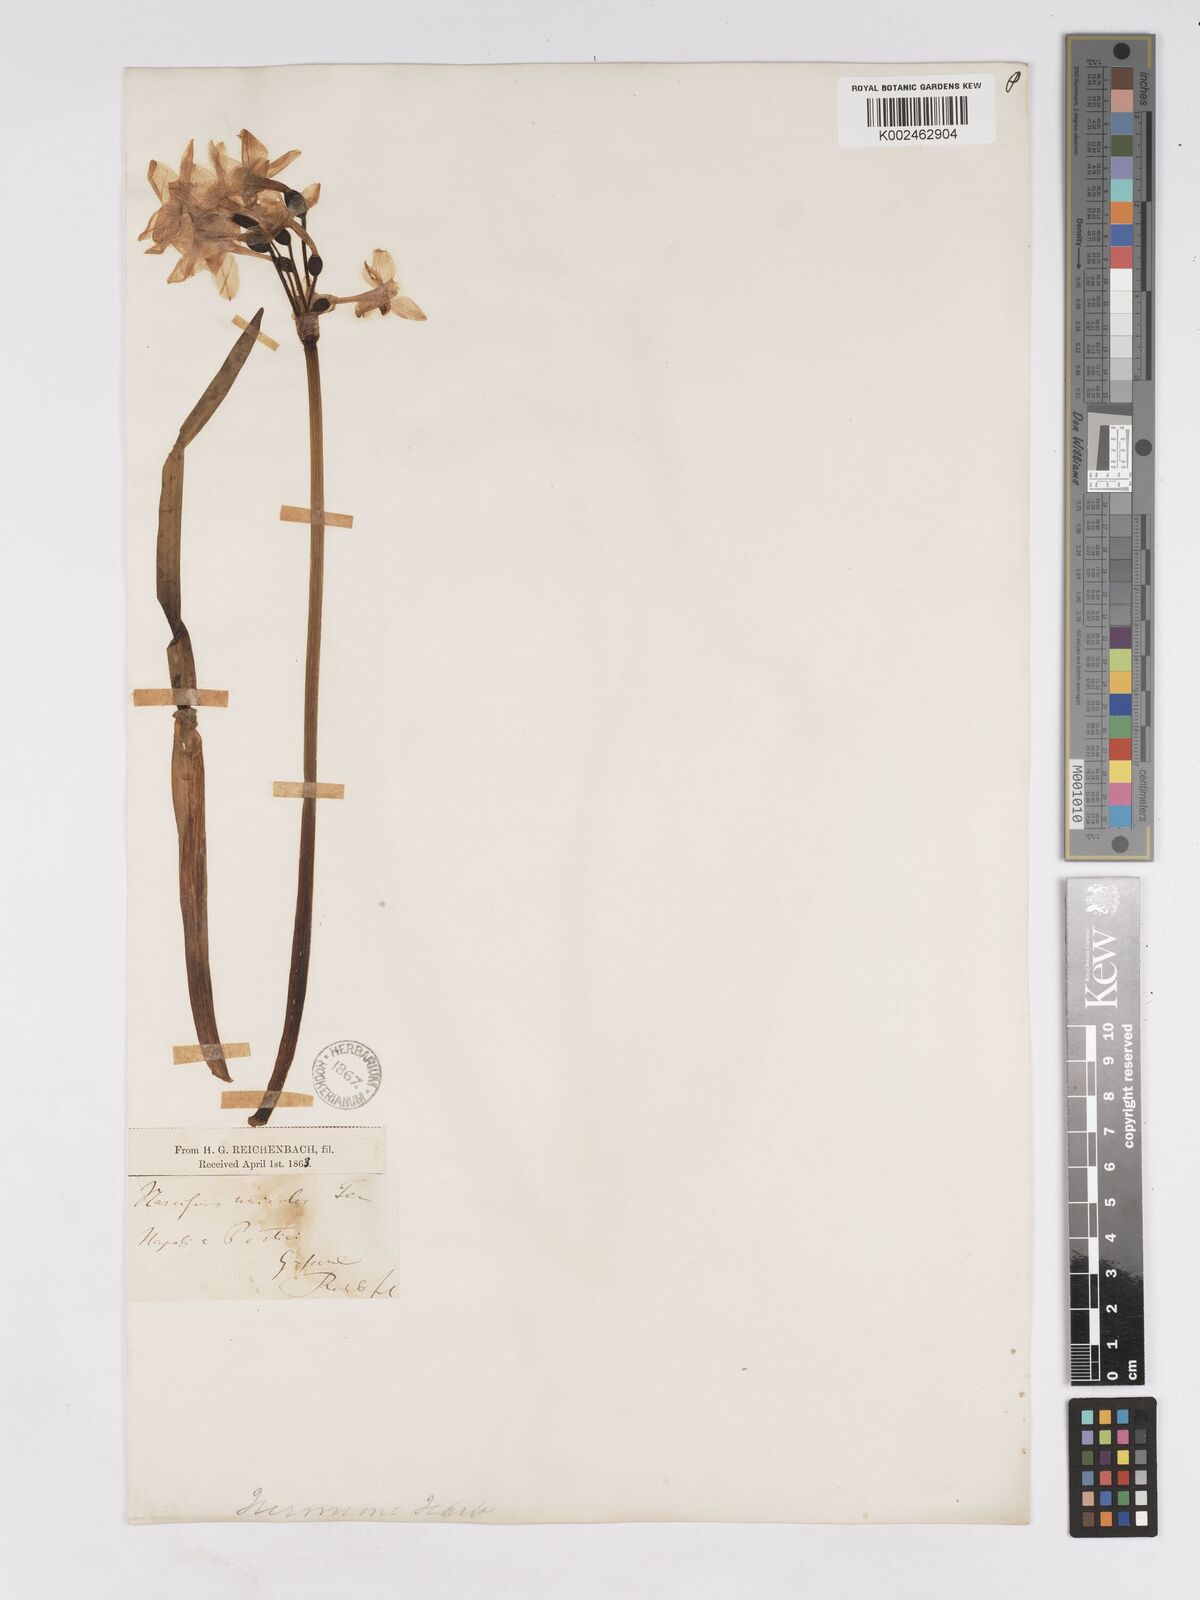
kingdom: Plantae
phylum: Tracheophyta
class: Liliopsida
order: Asparagales
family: Amaryllidaceae
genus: Narcissus
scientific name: Narcissus papyraceus
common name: Paper-white daffodil
